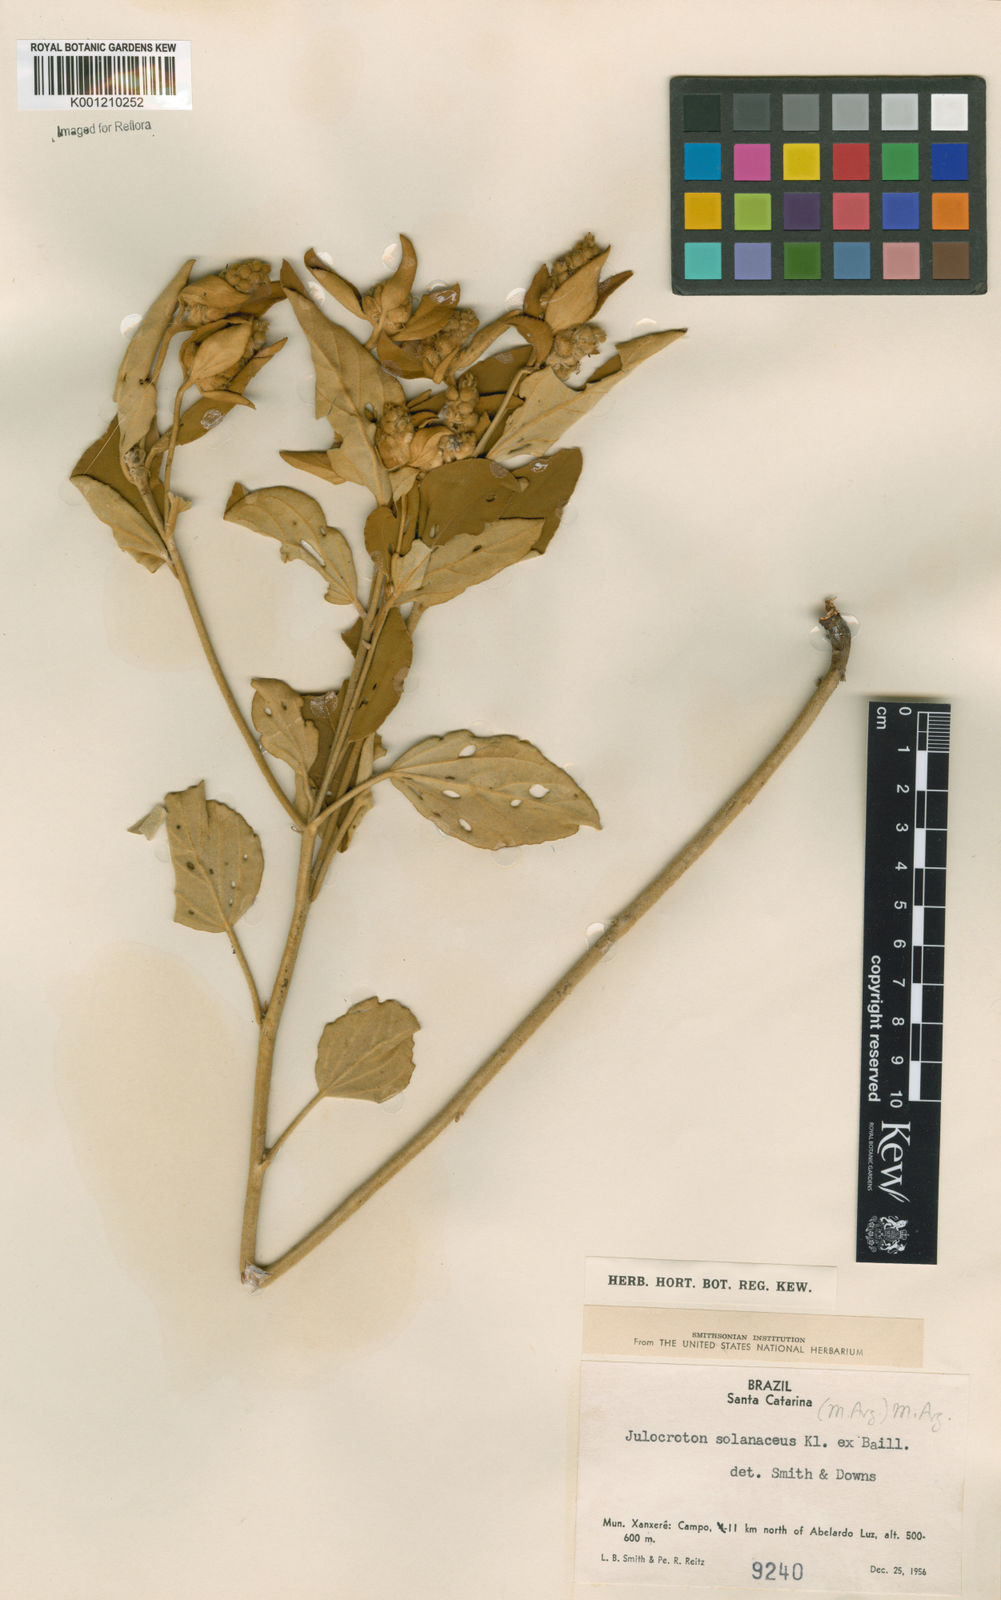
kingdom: Plantae
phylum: Tracheophyta
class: Magnoliopsida
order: Malpighiales
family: Euphorbiaceae
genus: Croton
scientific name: Croton
